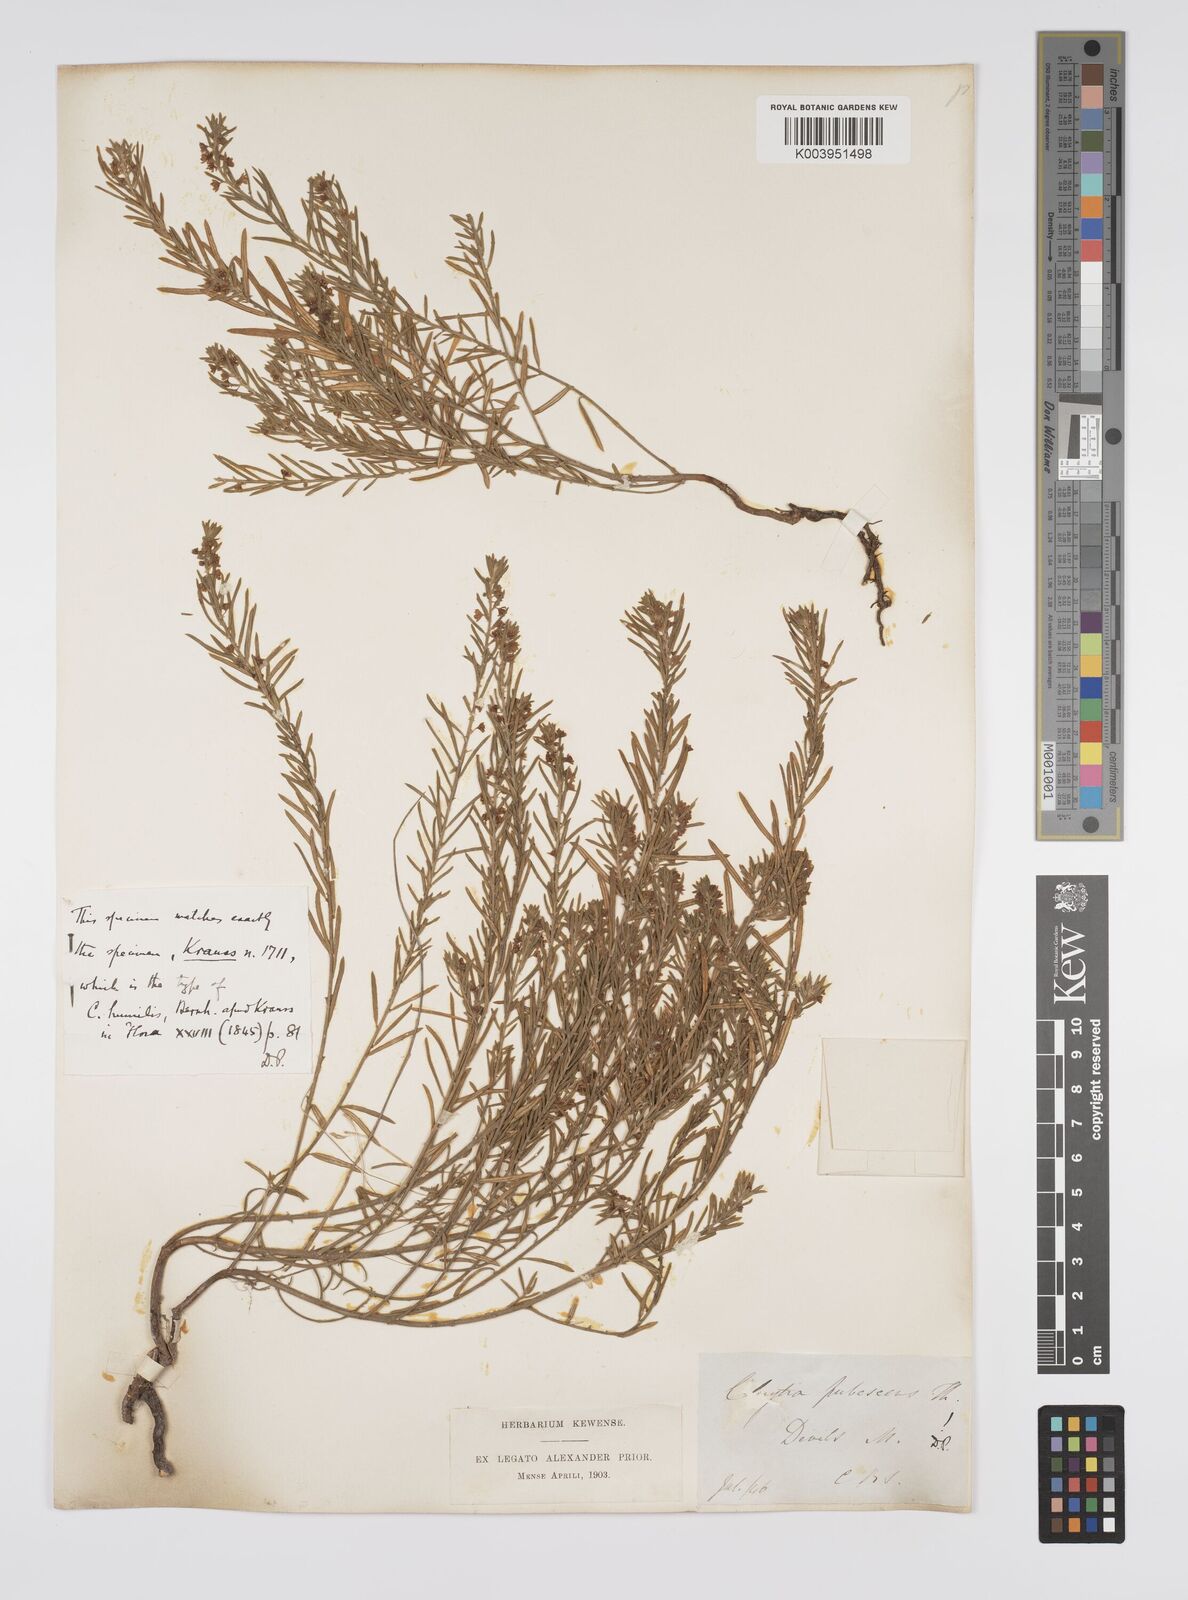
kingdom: Plantae
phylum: Tracheophyta
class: Magnoliopsida
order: Malpighiales
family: Peraceae
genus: Clutia
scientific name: Clutia
